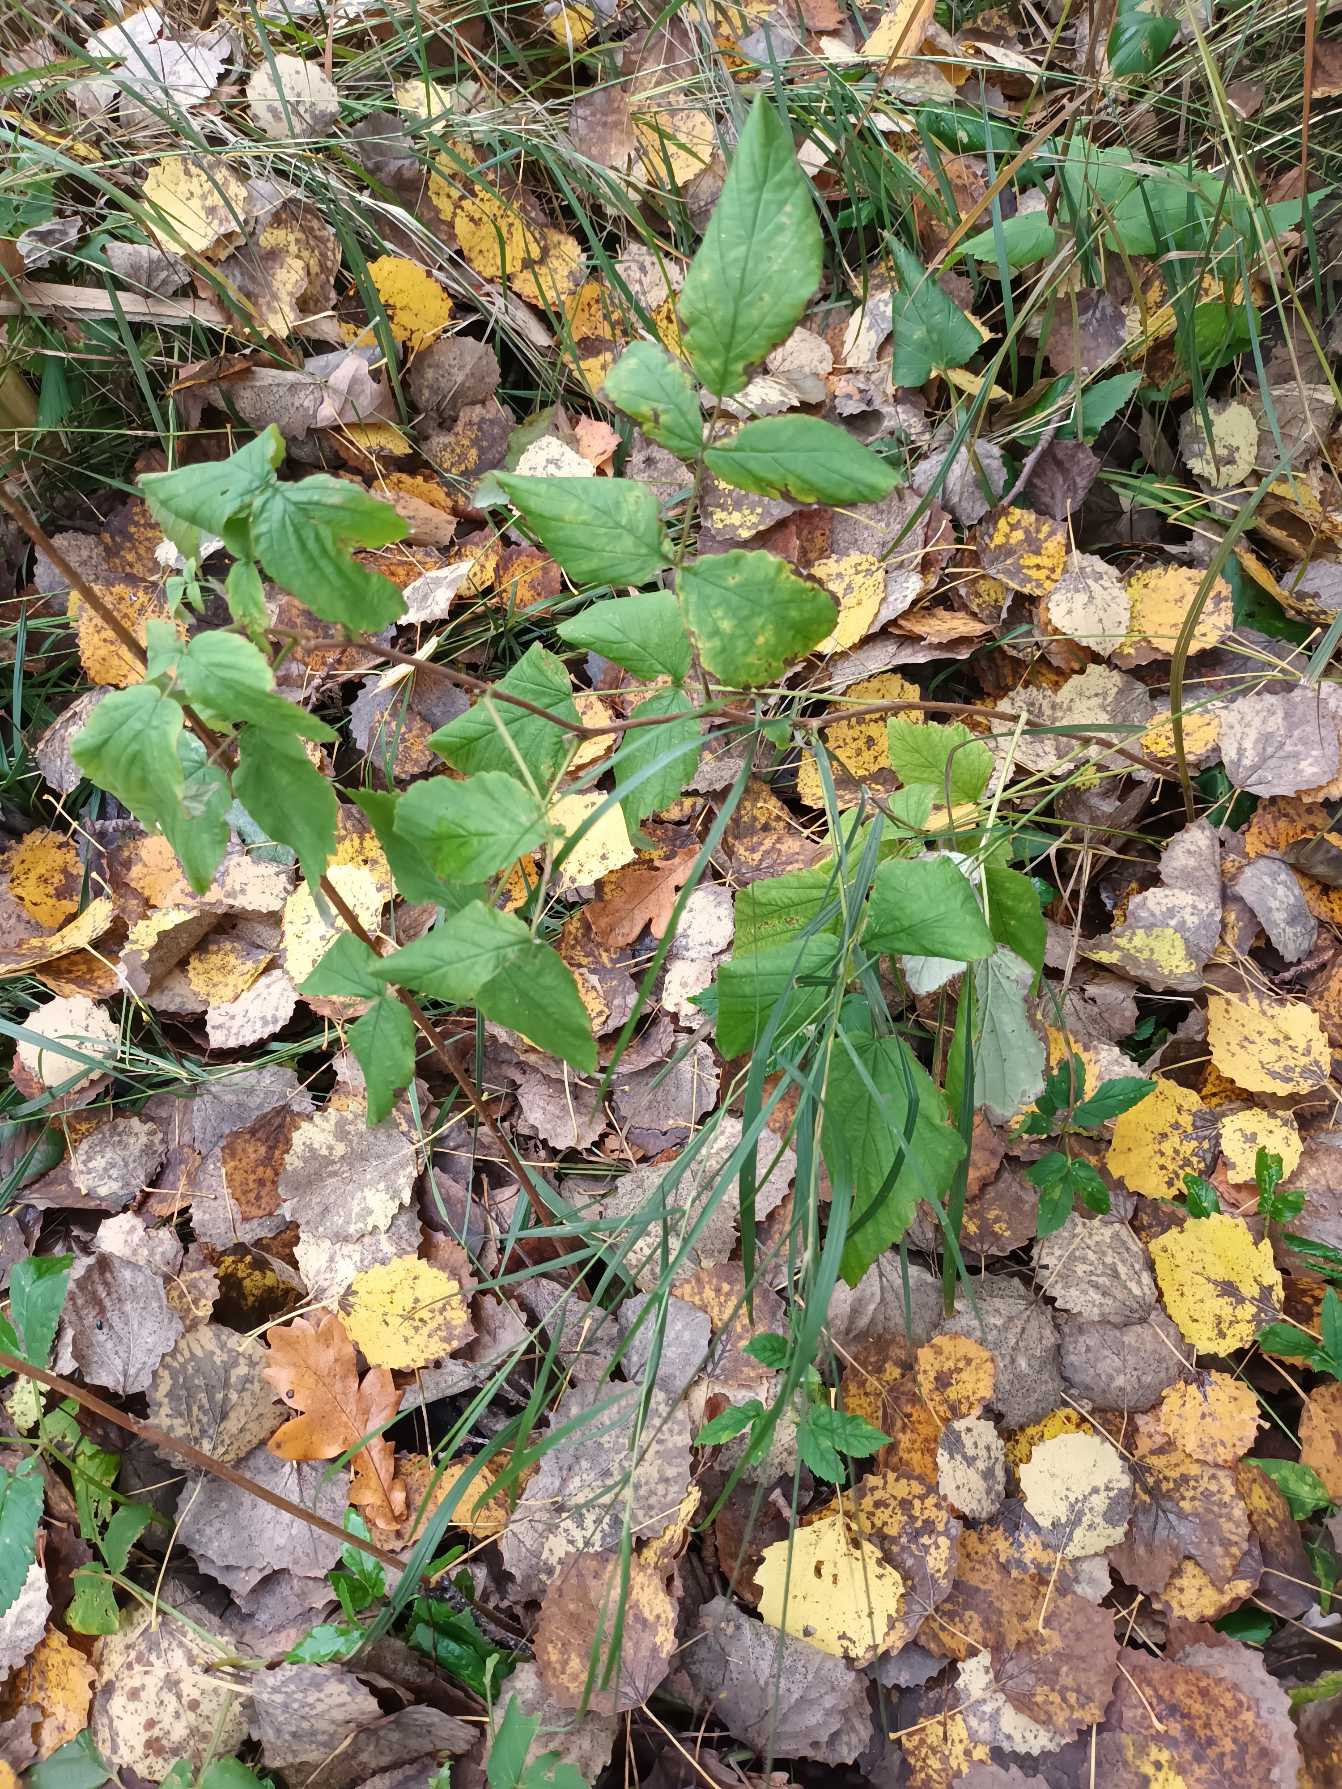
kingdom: Plantae
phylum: Tracheophyta
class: Magnoliopsida
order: Rosales
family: Rosaceae
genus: Rubus
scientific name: Rubus idaeus
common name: Hindbær
